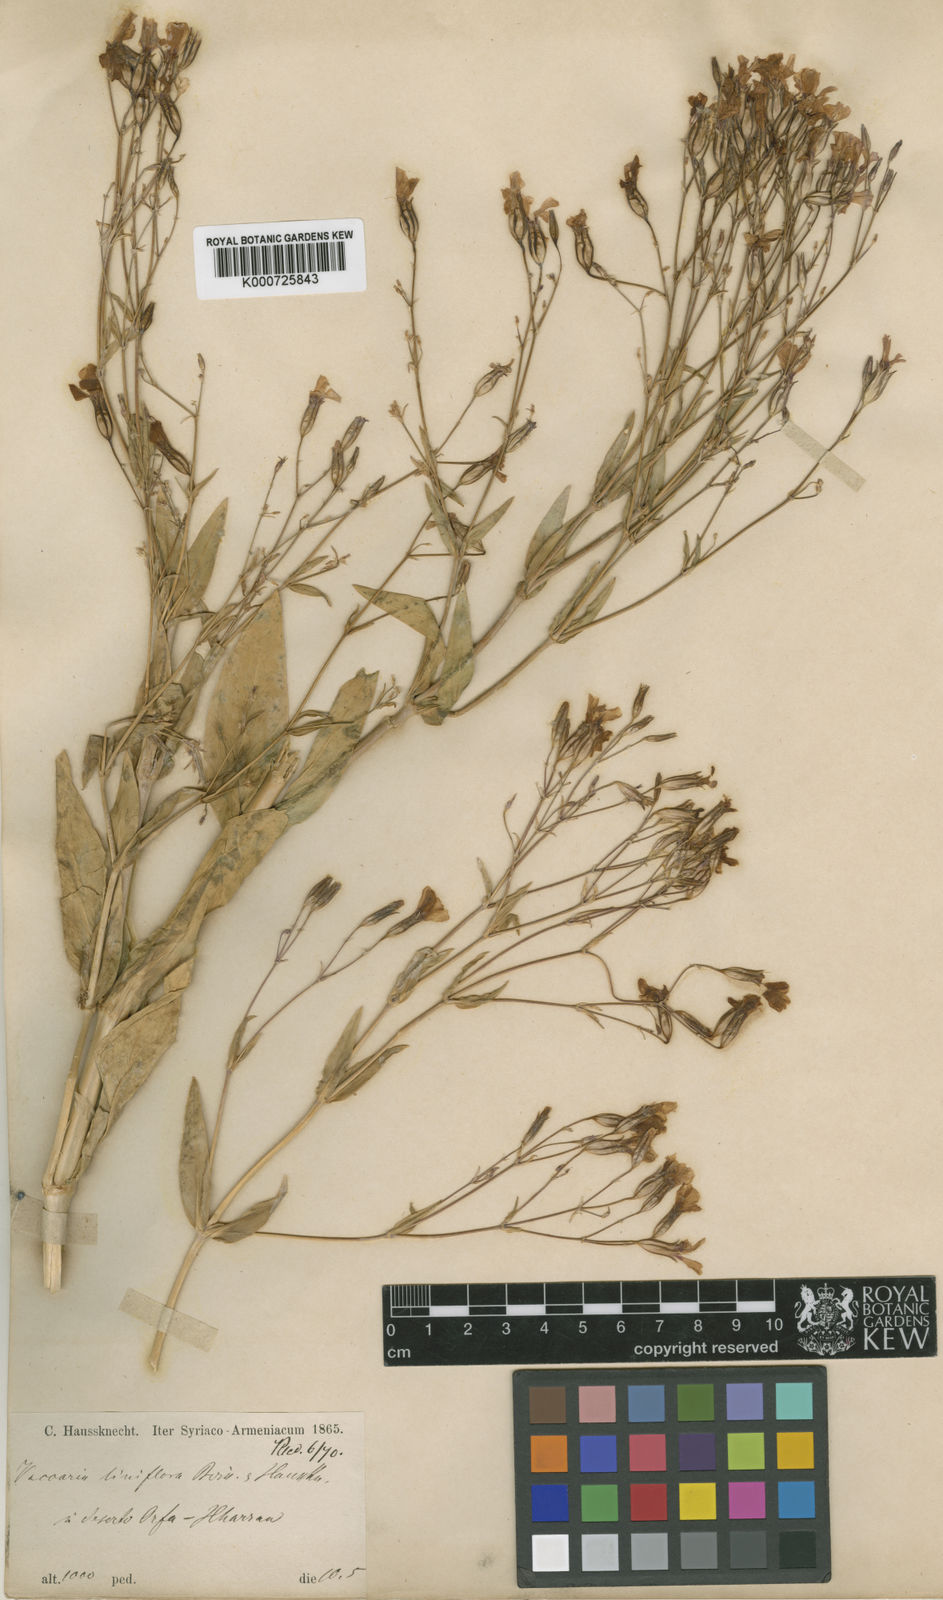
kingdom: Plantae
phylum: Tracheophyta
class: Magnoliopsida
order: Caryophyllales
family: Caryophyllaceae
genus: Gypsophila
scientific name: Gypsophila vaccaria
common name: Cow soapwort
